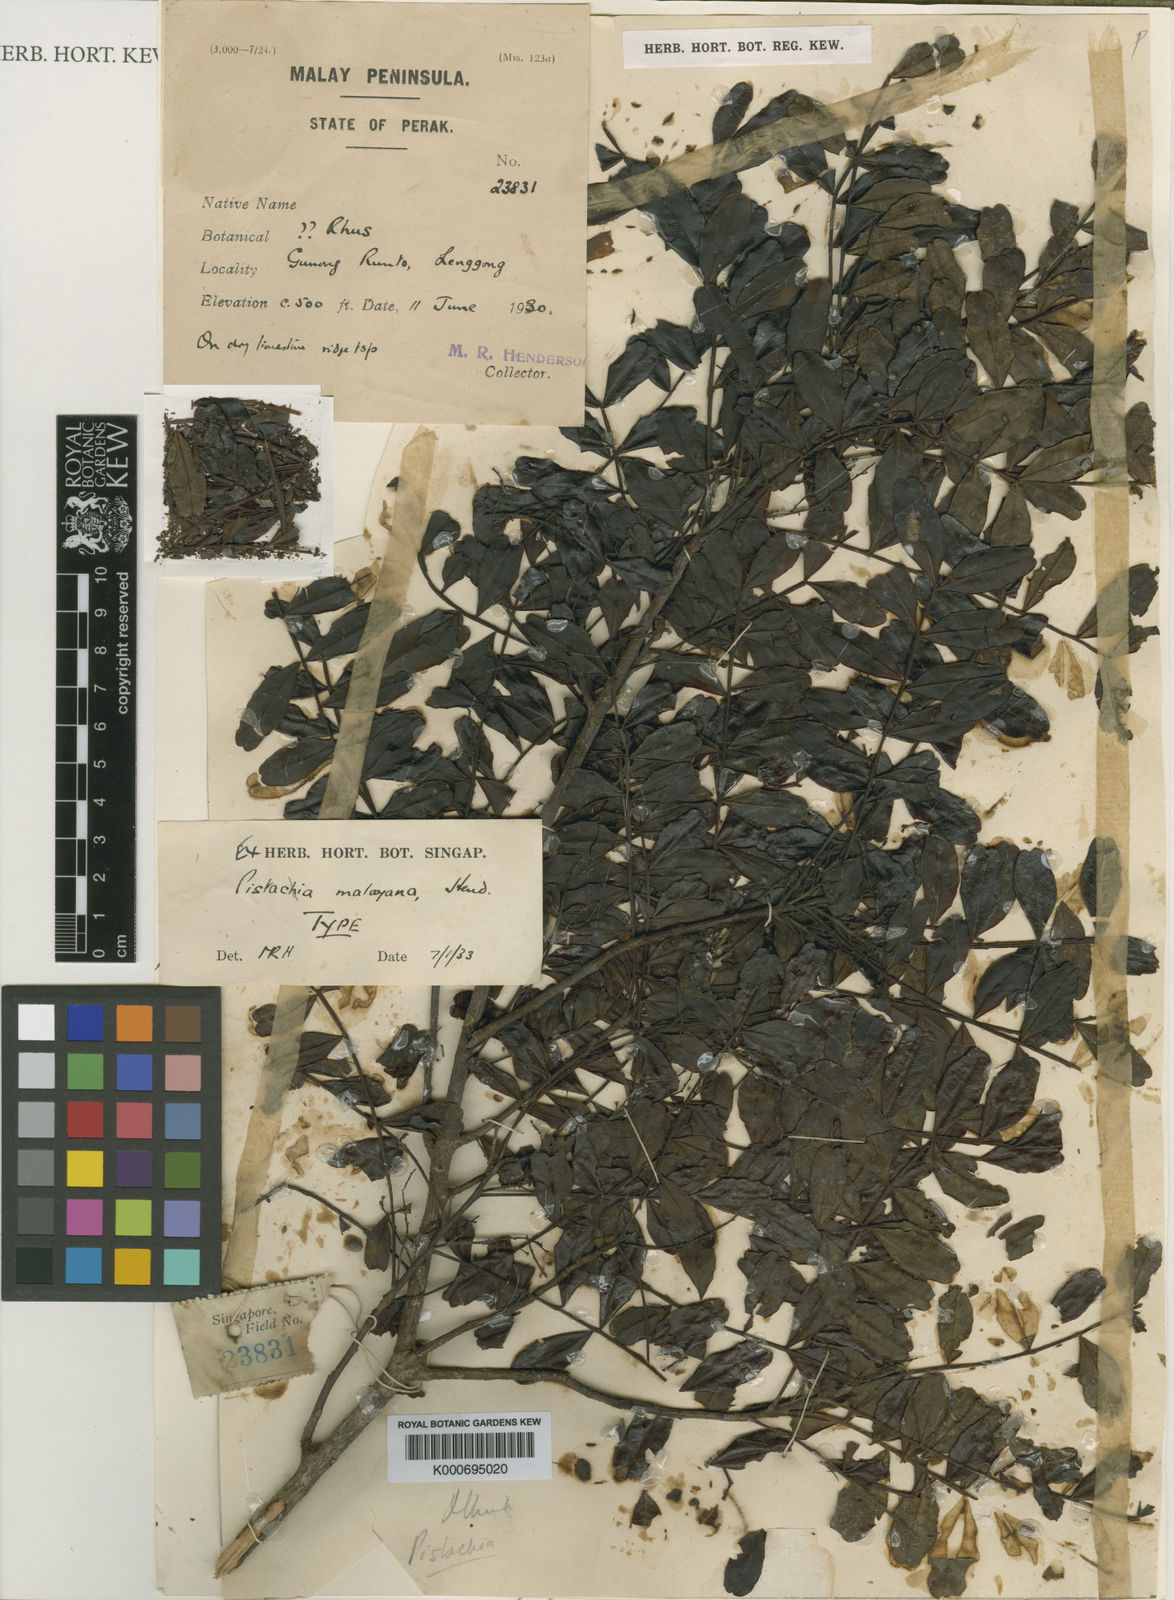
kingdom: Plantae
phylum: Tracheophyta
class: Magnoliopsida
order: Sapindales
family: Anacardiaceae
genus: Pistacia
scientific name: Pistacia weinmannifolia
